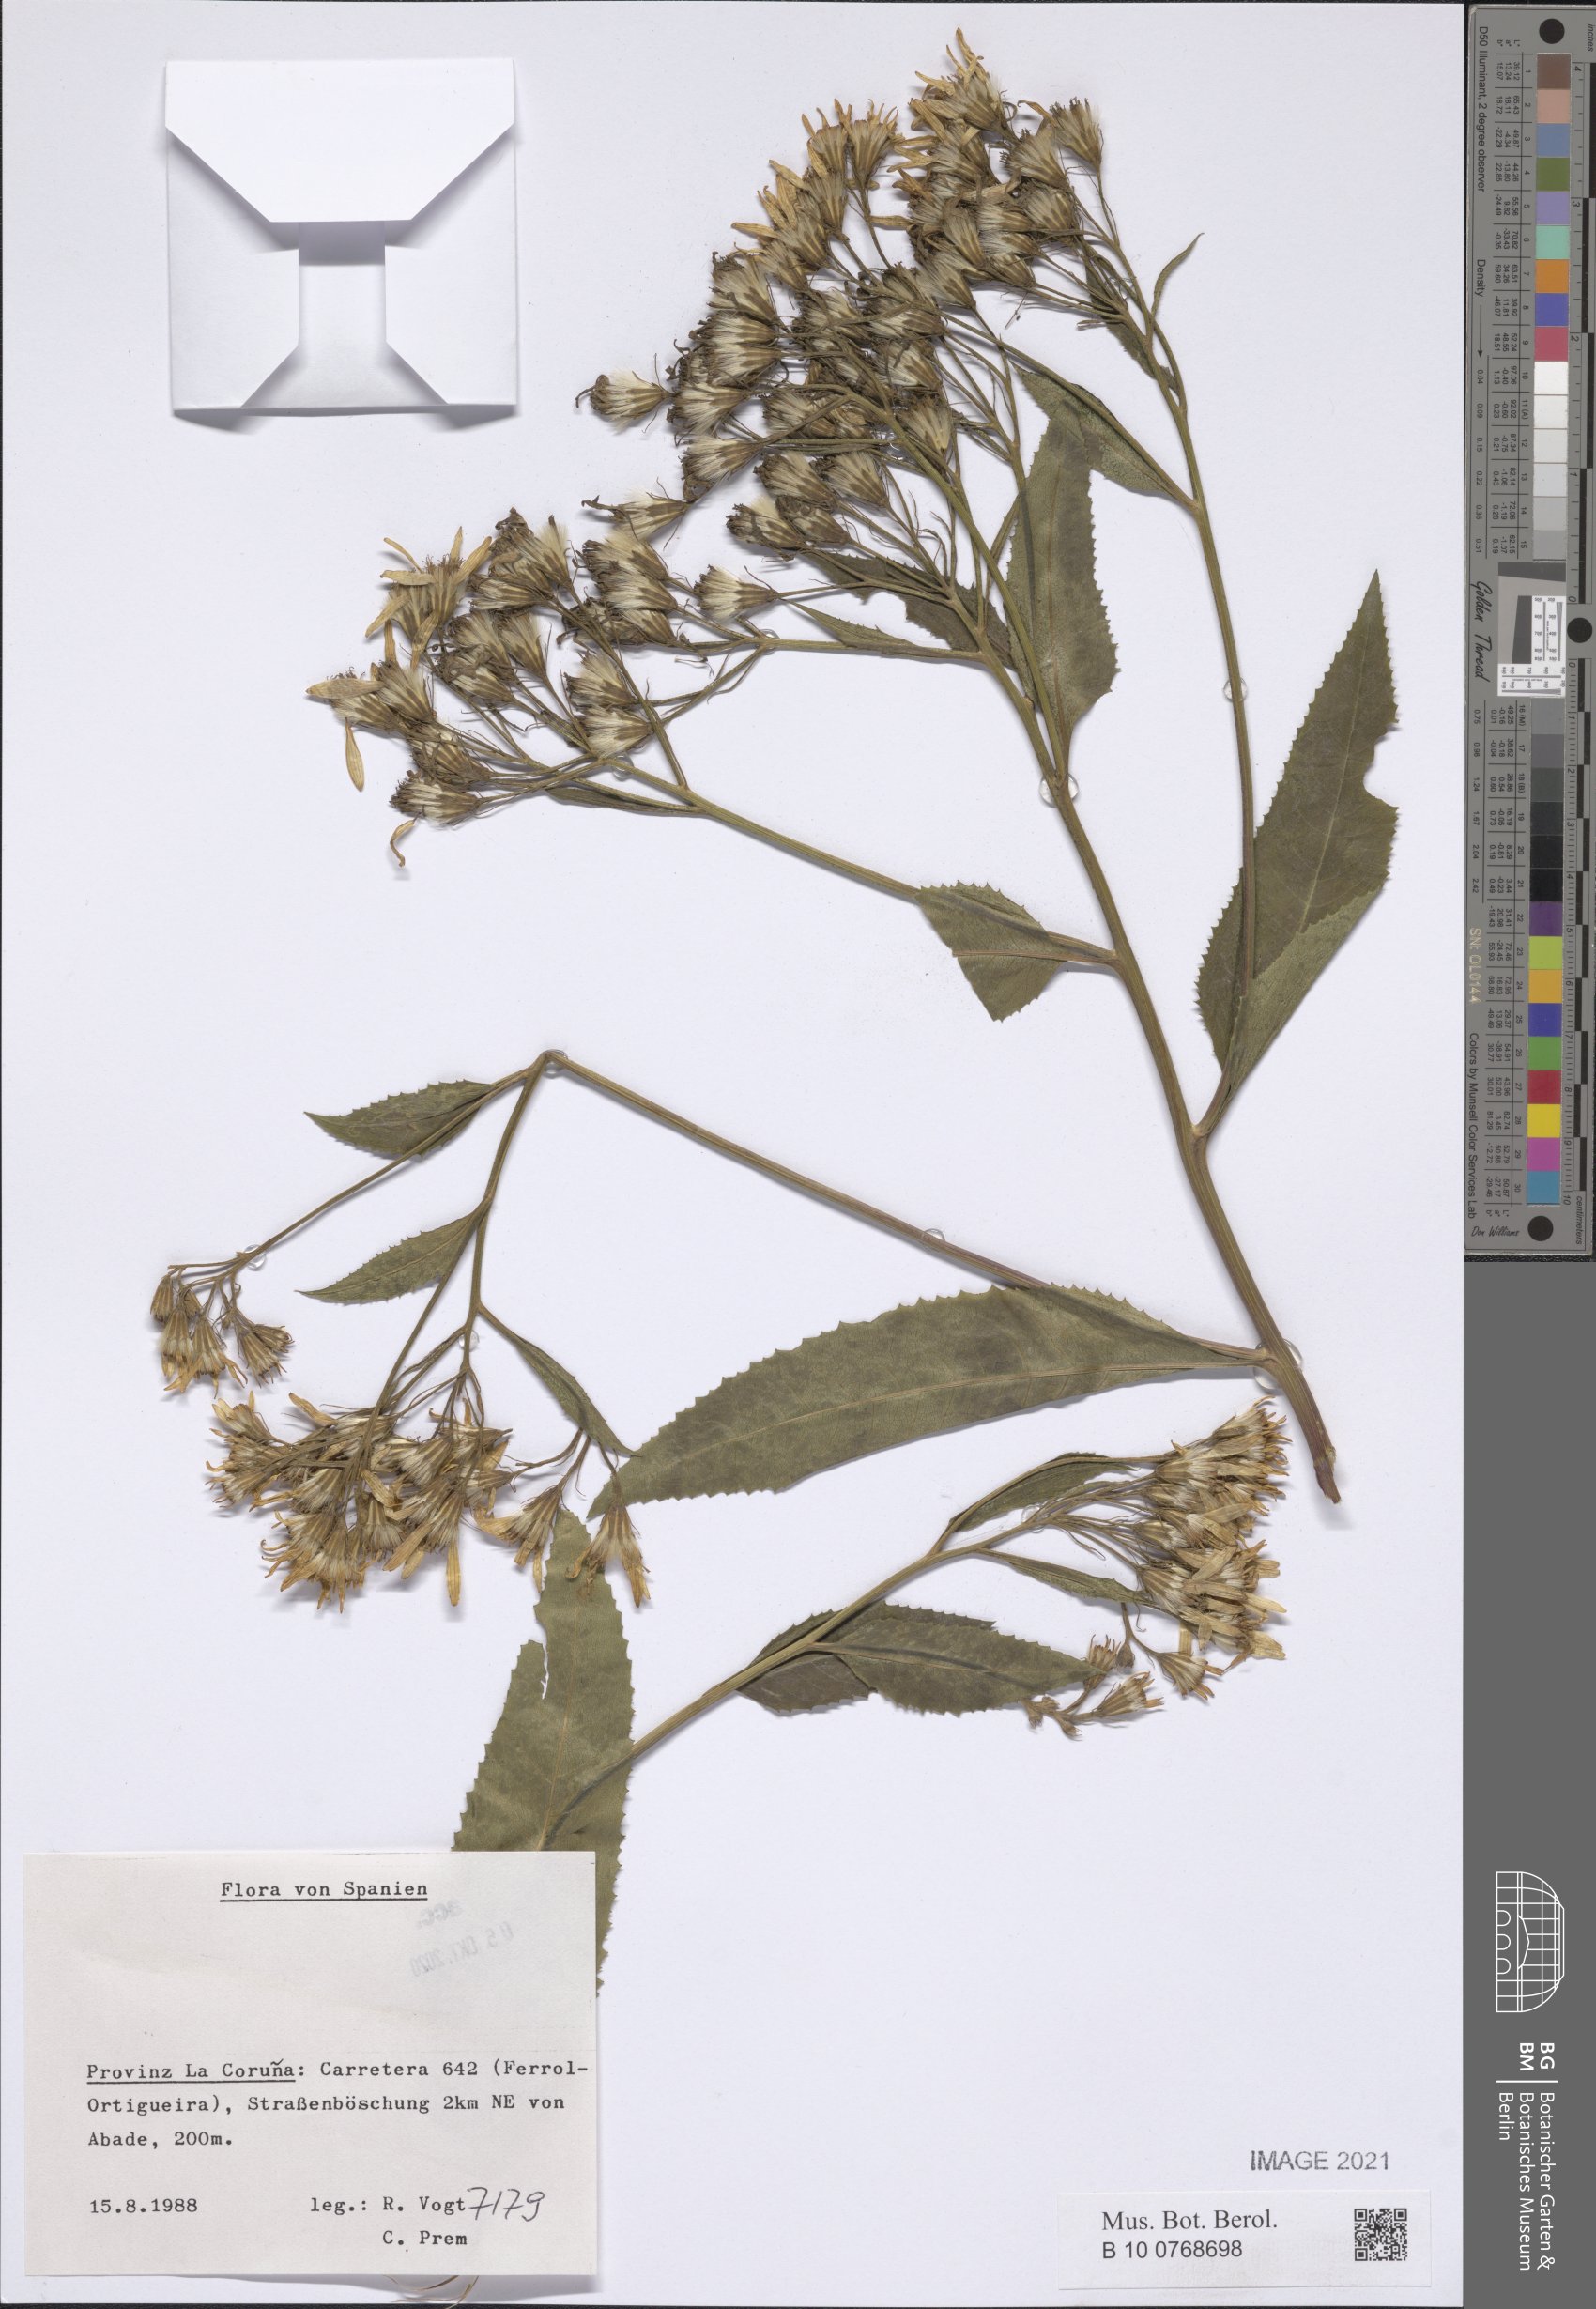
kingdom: Plantae
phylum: Tracheophyta
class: Magnoliopsida
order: Asterales
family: Asteraceae
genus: Senecio
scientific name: Senecio
